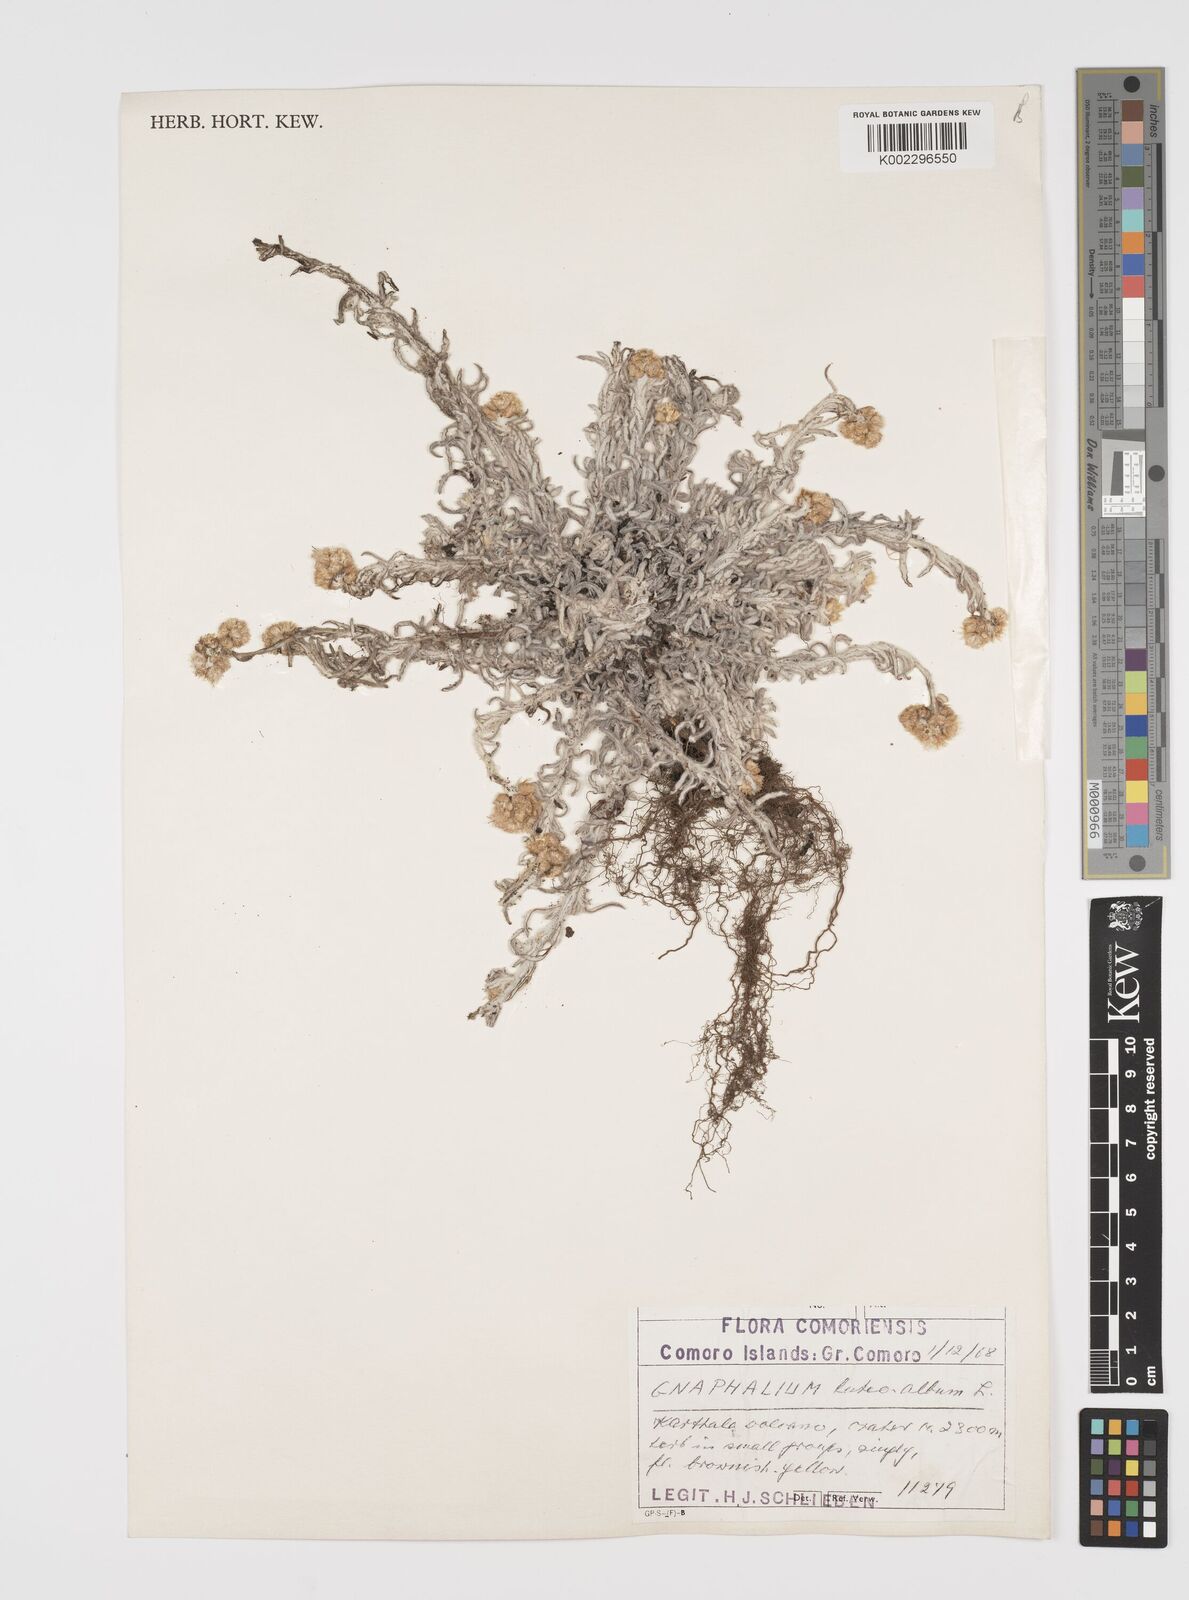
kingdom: Plantae
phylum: Tracheophyta
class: Magnoliopsida
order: Asterales
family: Asteraceae
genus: Helichrysum
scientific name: Helichrysum luteoalbum
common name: Daisy
